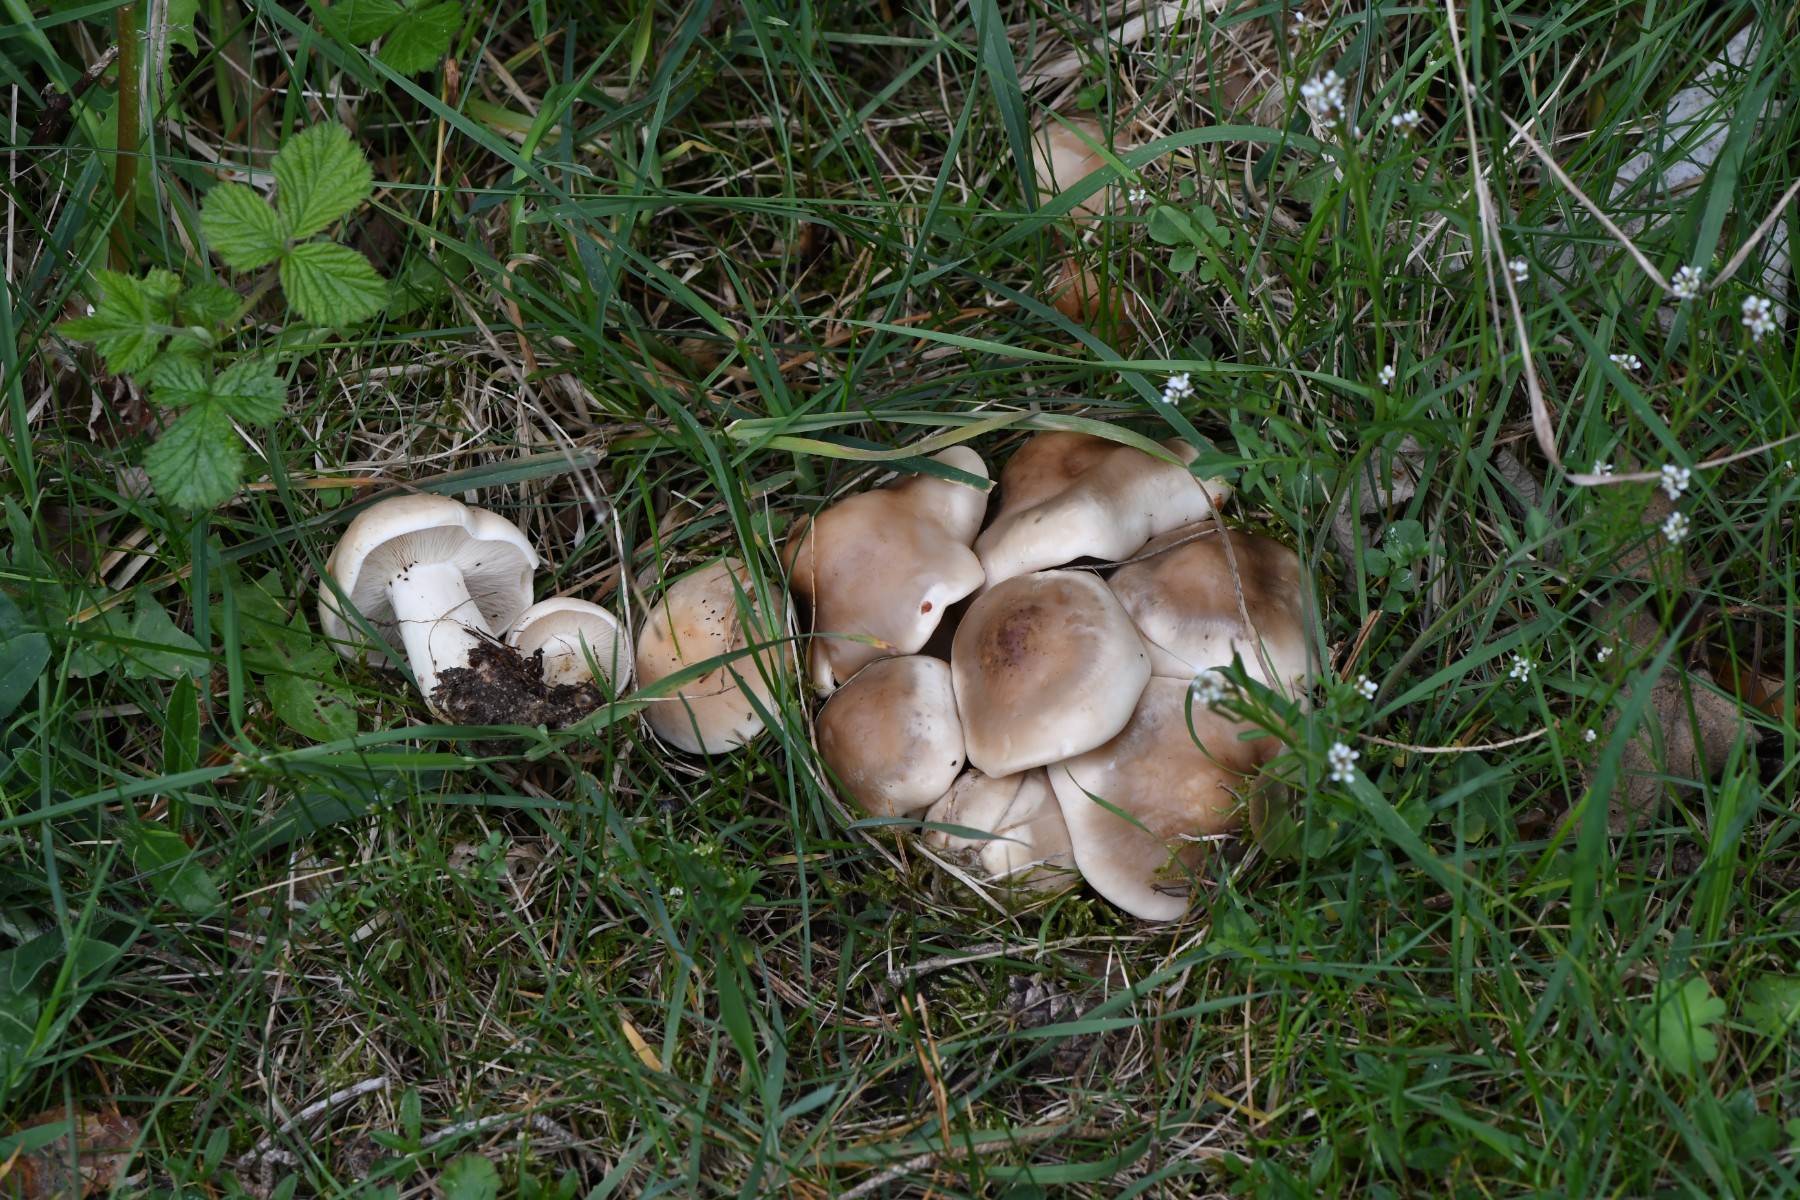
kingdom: Fungi
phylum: Basidiomycota
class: Agaricomycetes
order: Agaricales
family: Lyophyllaceae
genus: Calocybe
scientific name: Calocybe gambosa
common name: vårmusseron
